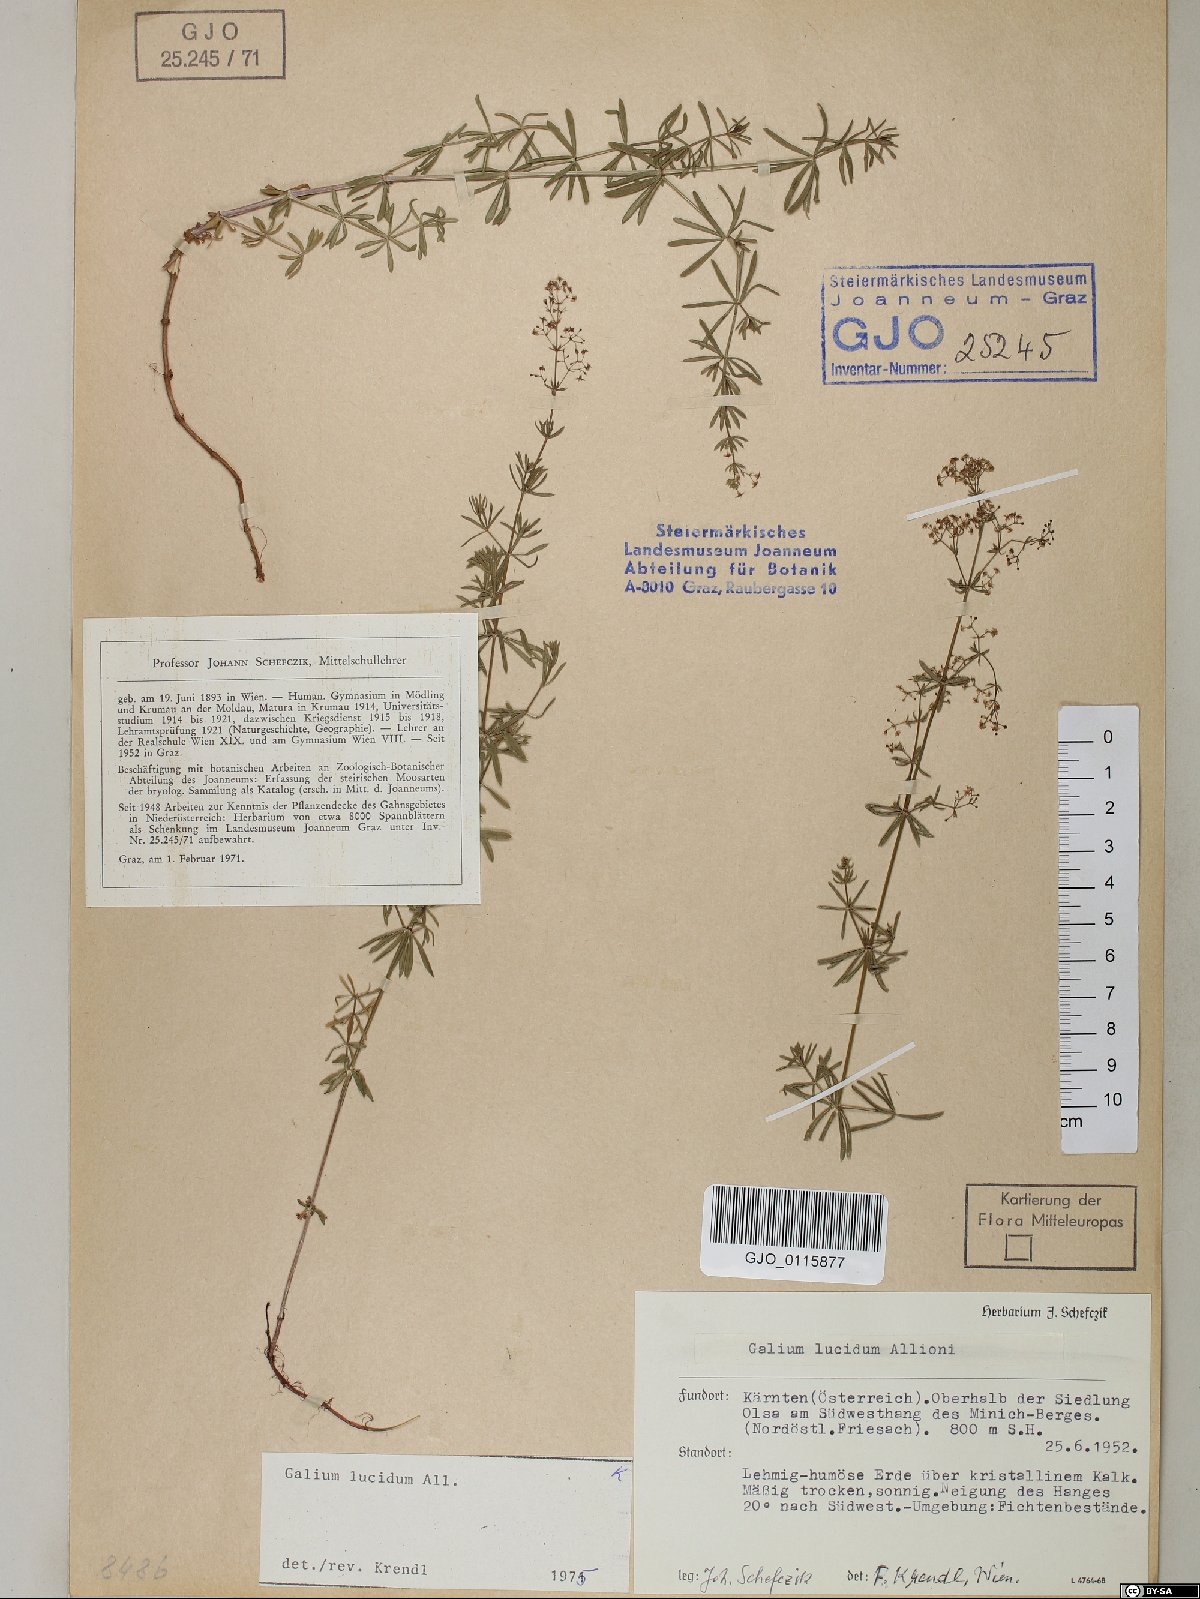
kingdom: Plantae
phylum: Tracheophyta
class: Magnoliopsida
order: Gentianales
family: Rubiaceae
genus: Galium
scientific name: Galium lucidum
